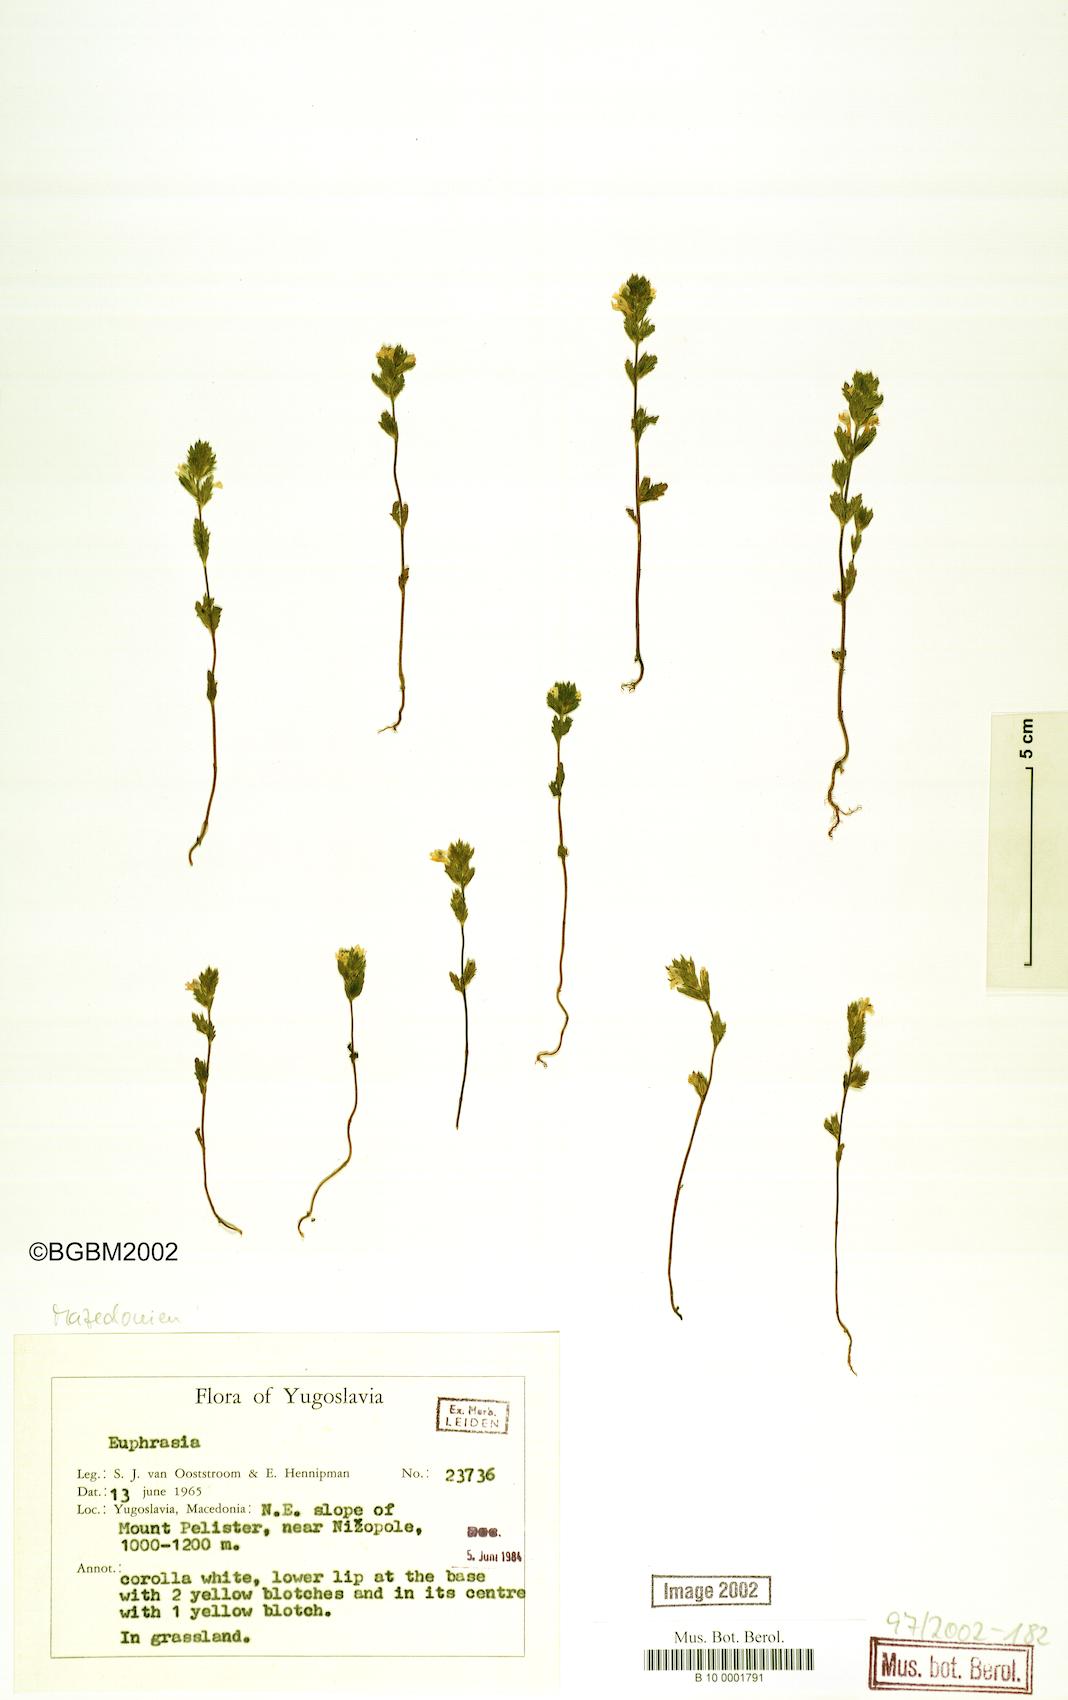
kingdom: Plantae
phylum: Tracheophyta
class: Magnoliopsida
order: Lamiales
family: Orobanchaceae
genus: Euphrasia
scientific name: Euphrasia
